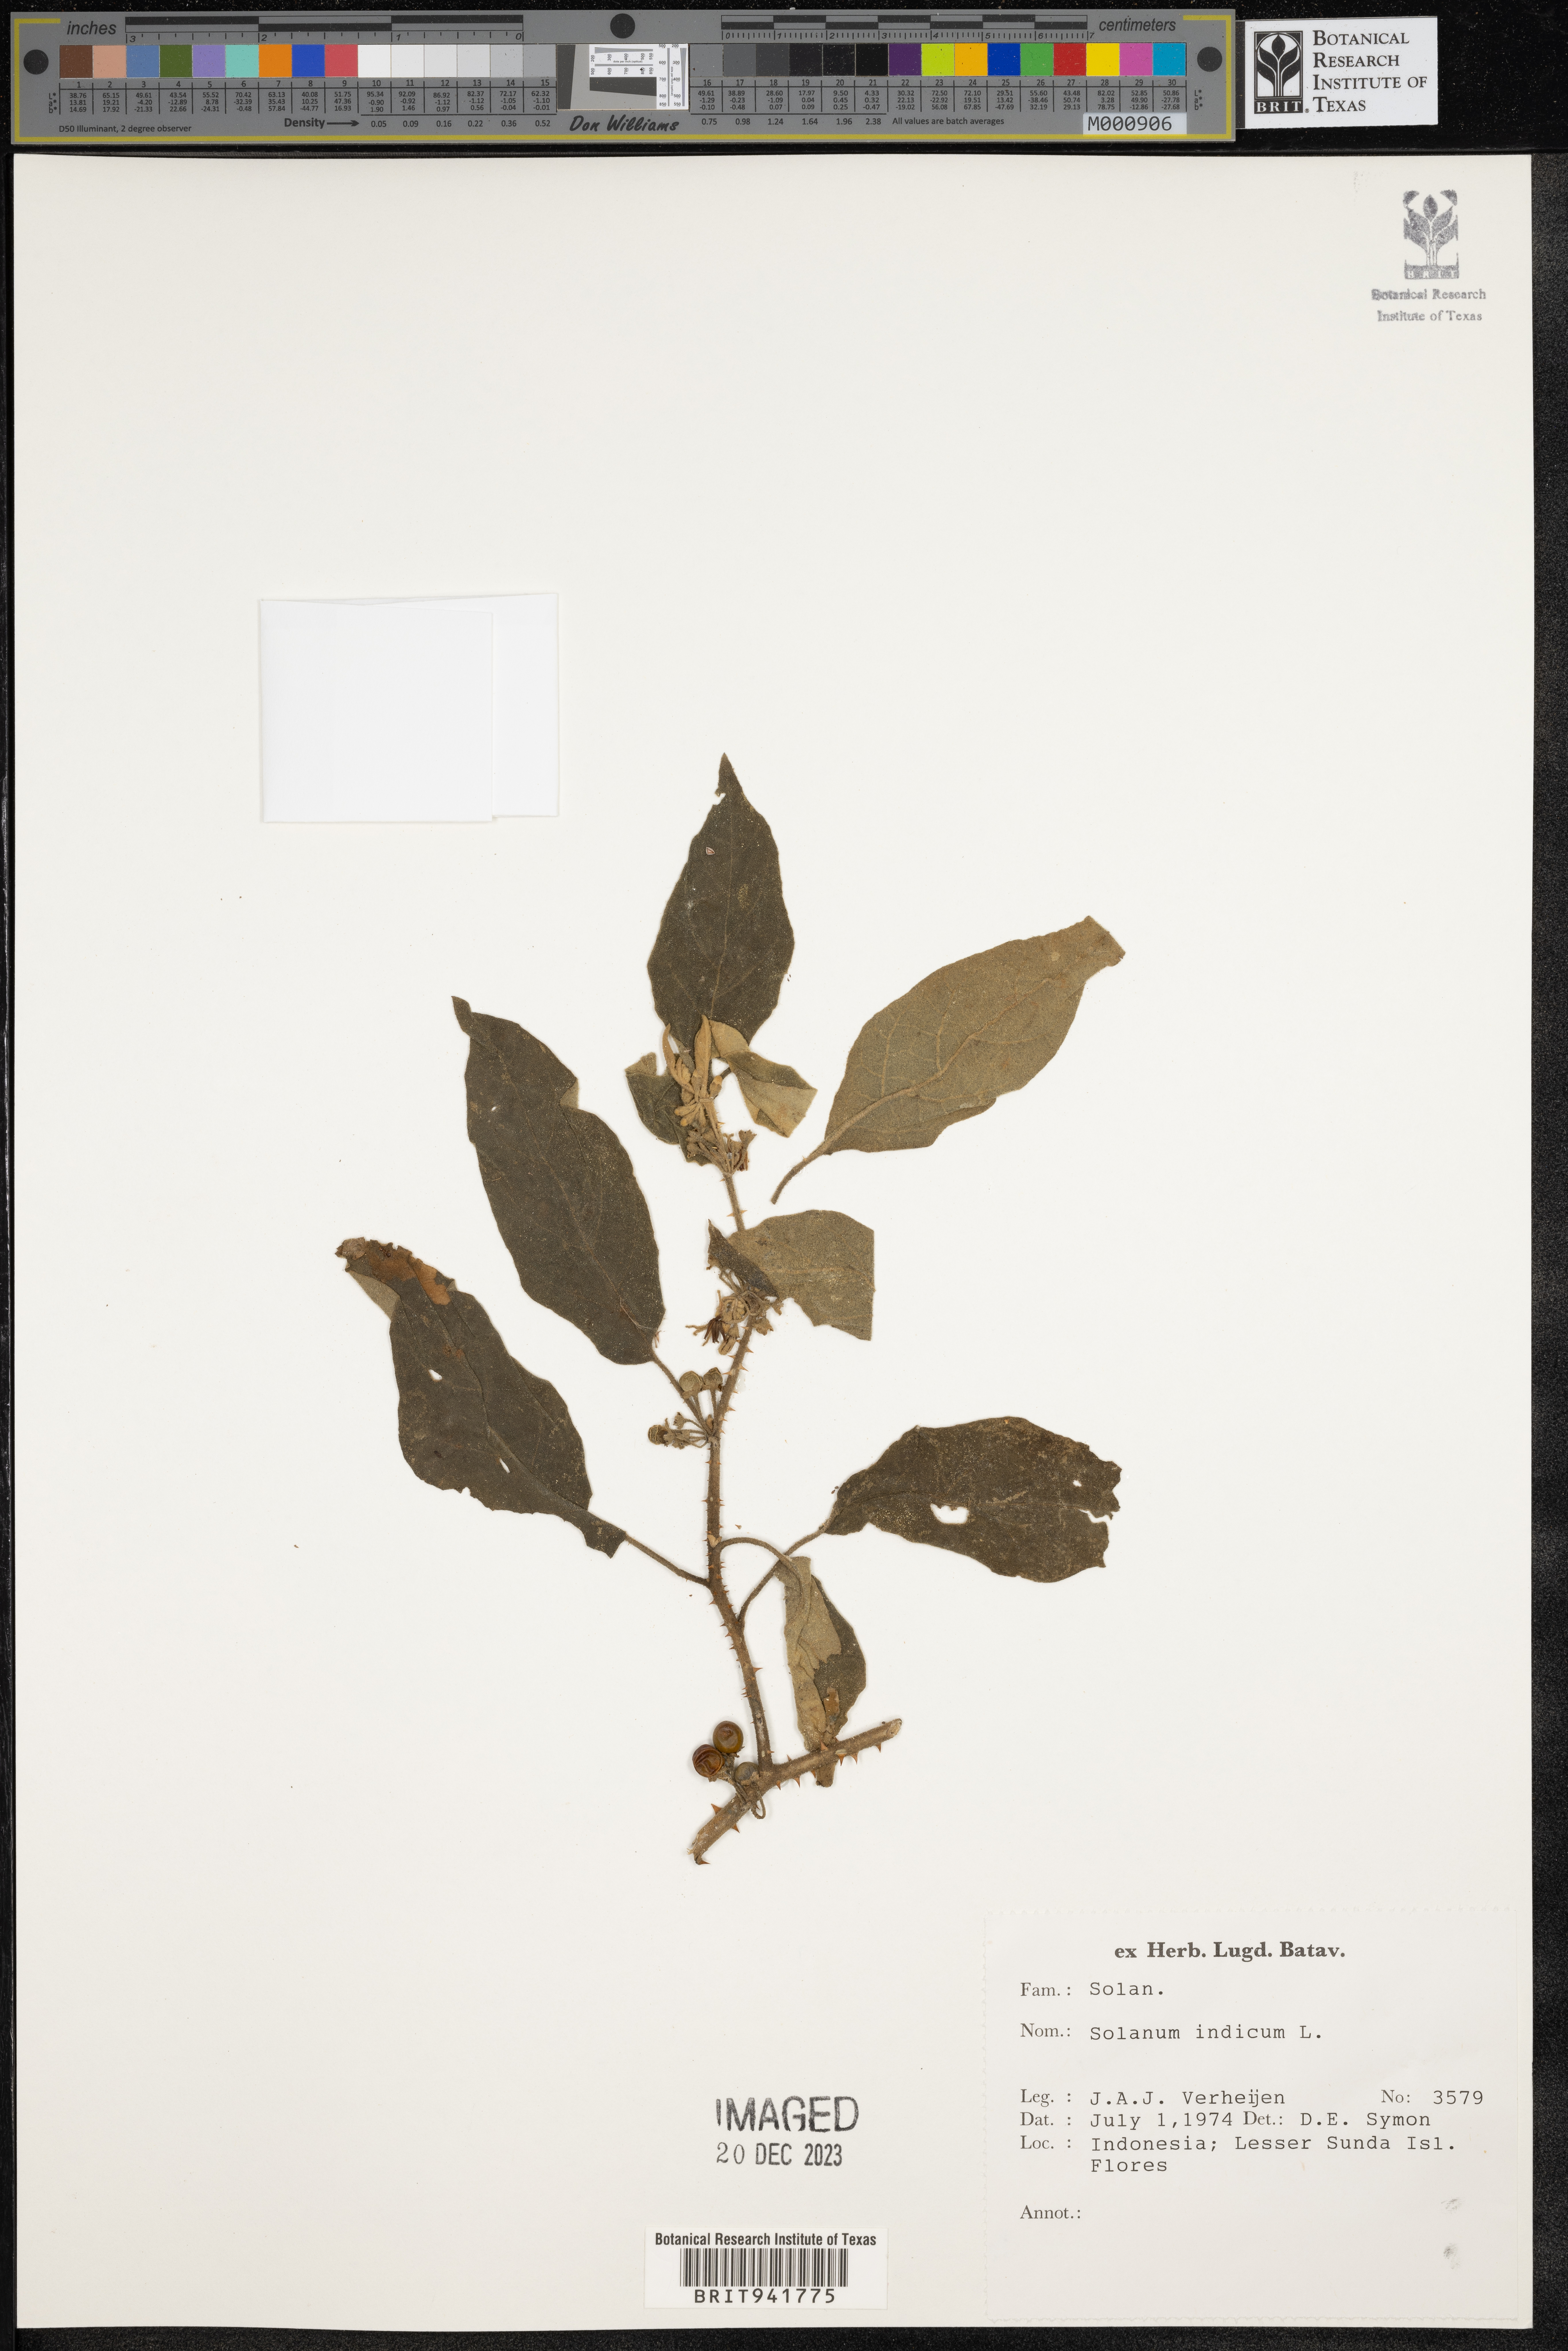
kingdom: Plantae
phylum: Tracheophyta
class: Magnoliopsida
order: Solanales
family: Solanaceae
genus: Solanum
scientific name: Solanum
